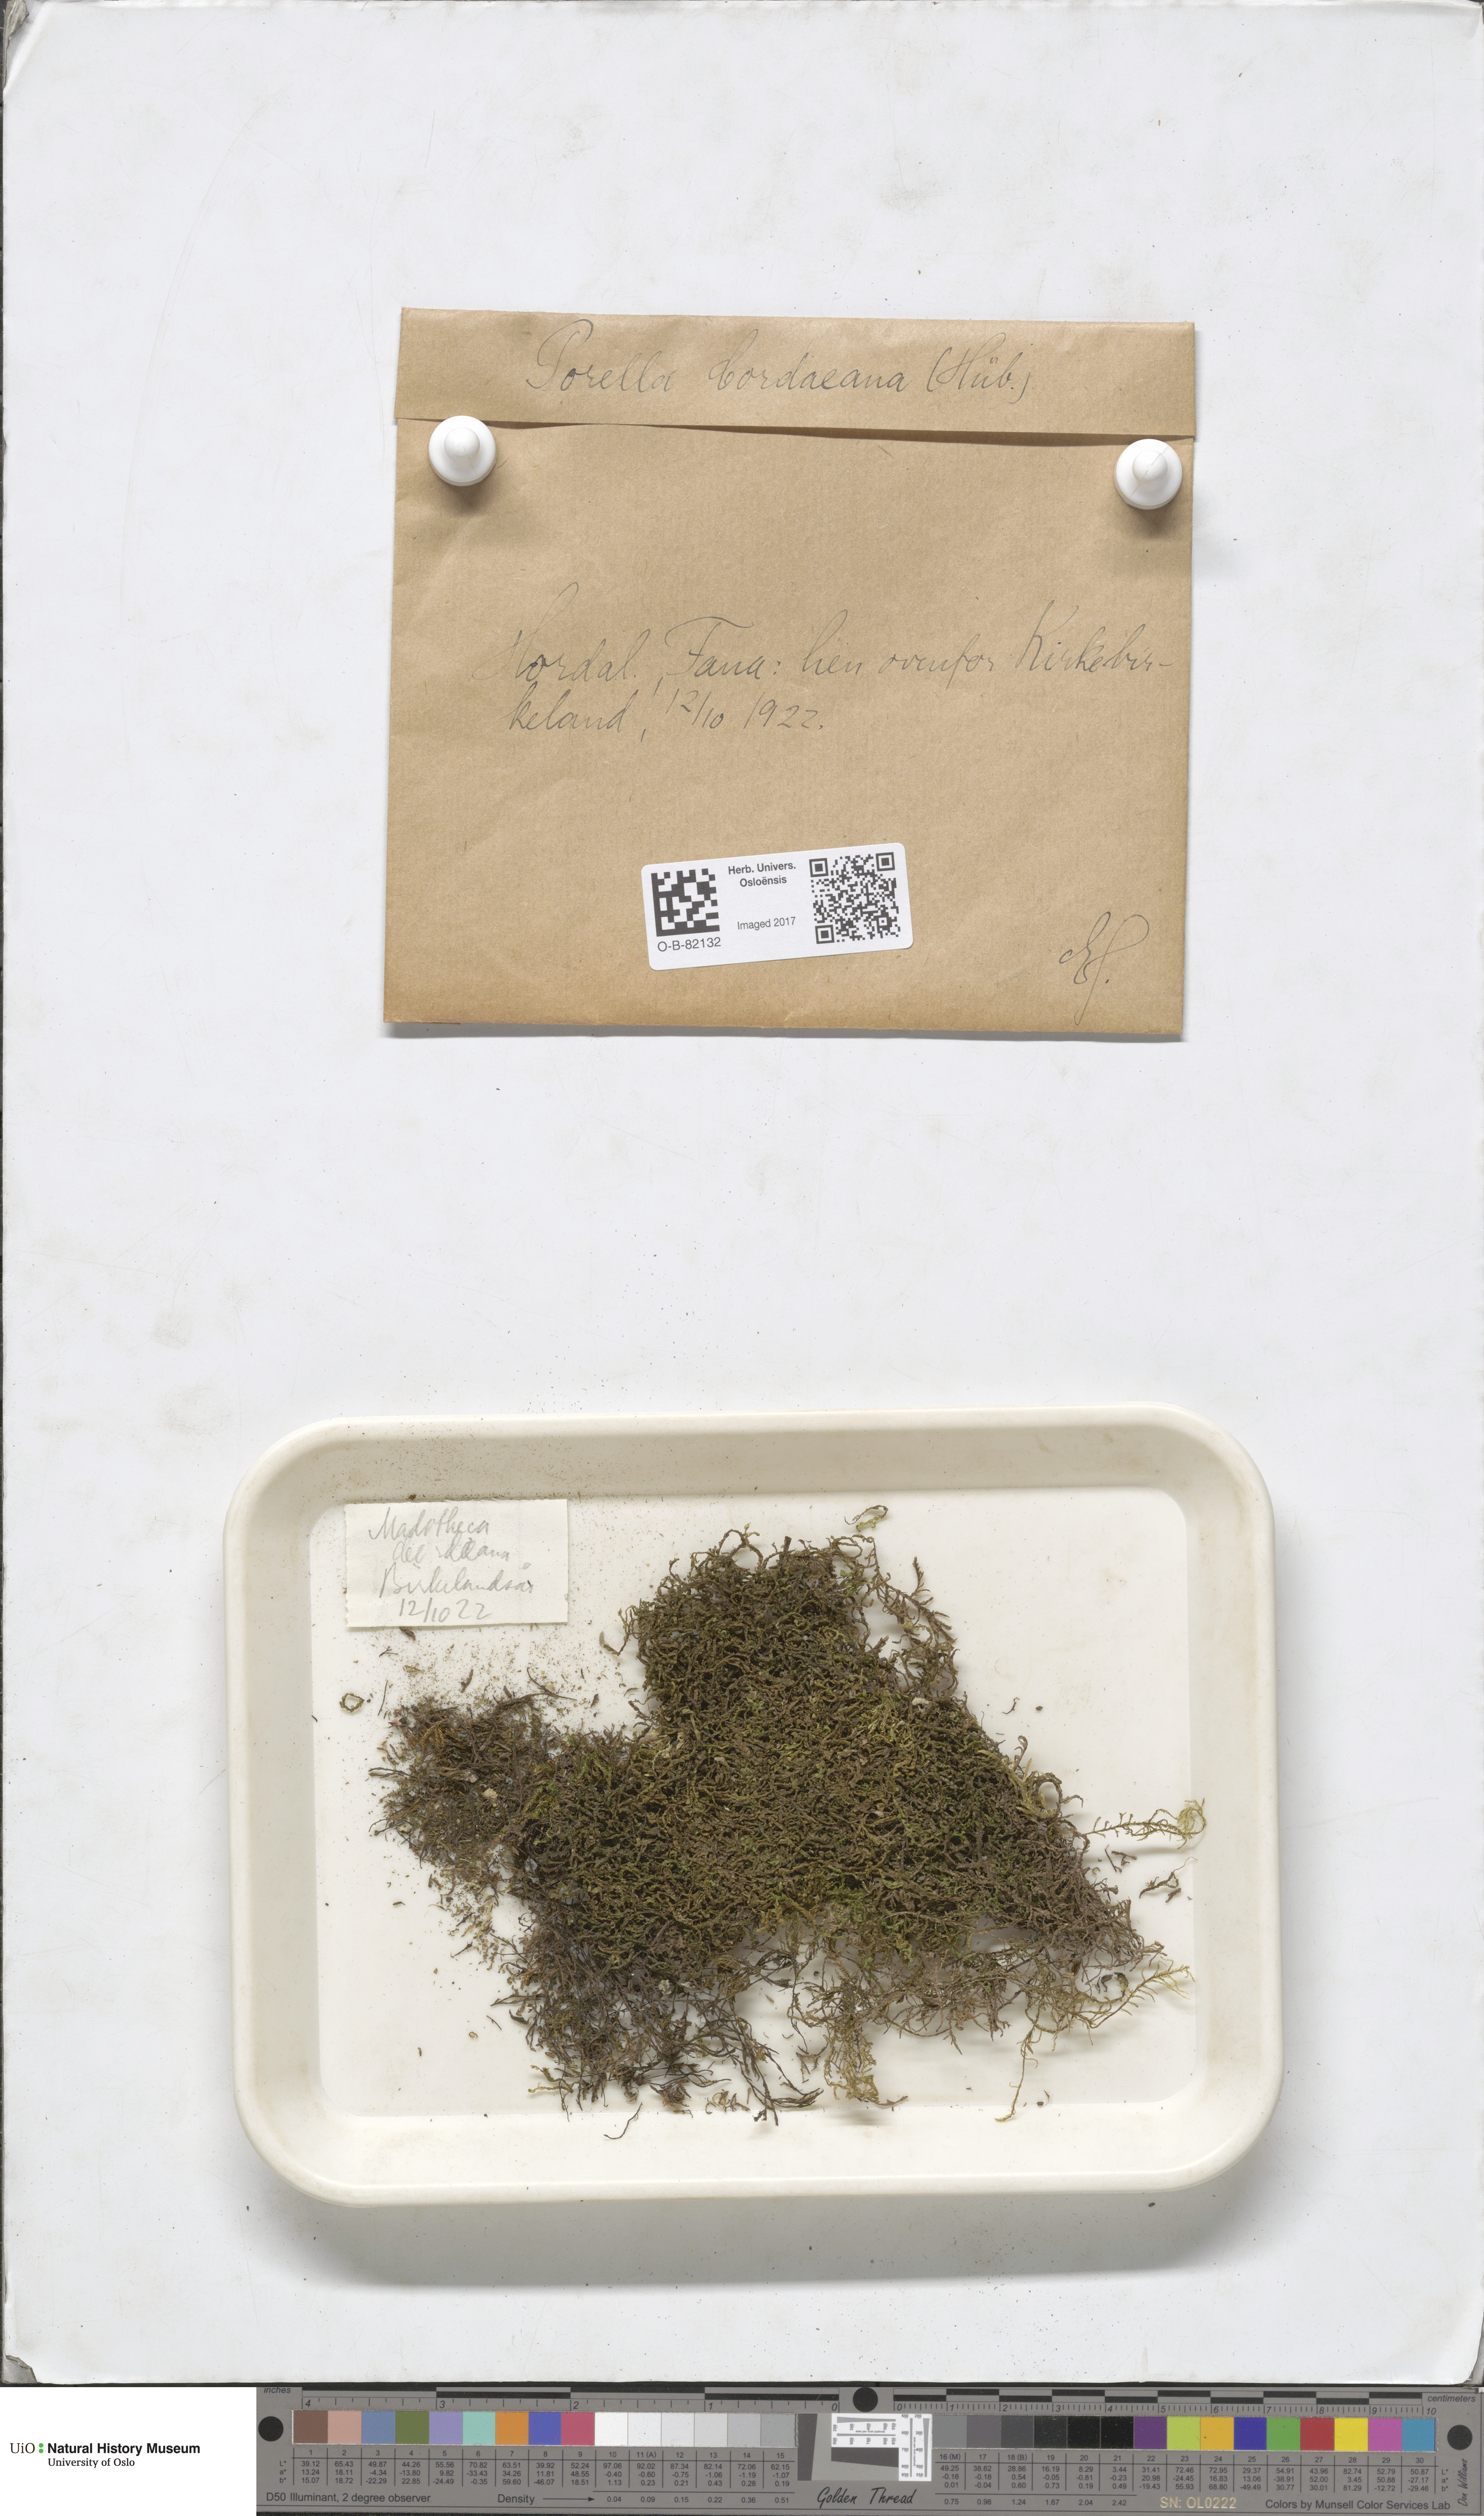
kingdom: Plantae
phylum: Marchantiophyta
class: Jungermanniopsida
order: Porellales
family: Porellaceae
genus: Porella
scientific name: Porella cordaeana
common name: Cliff scalewort
